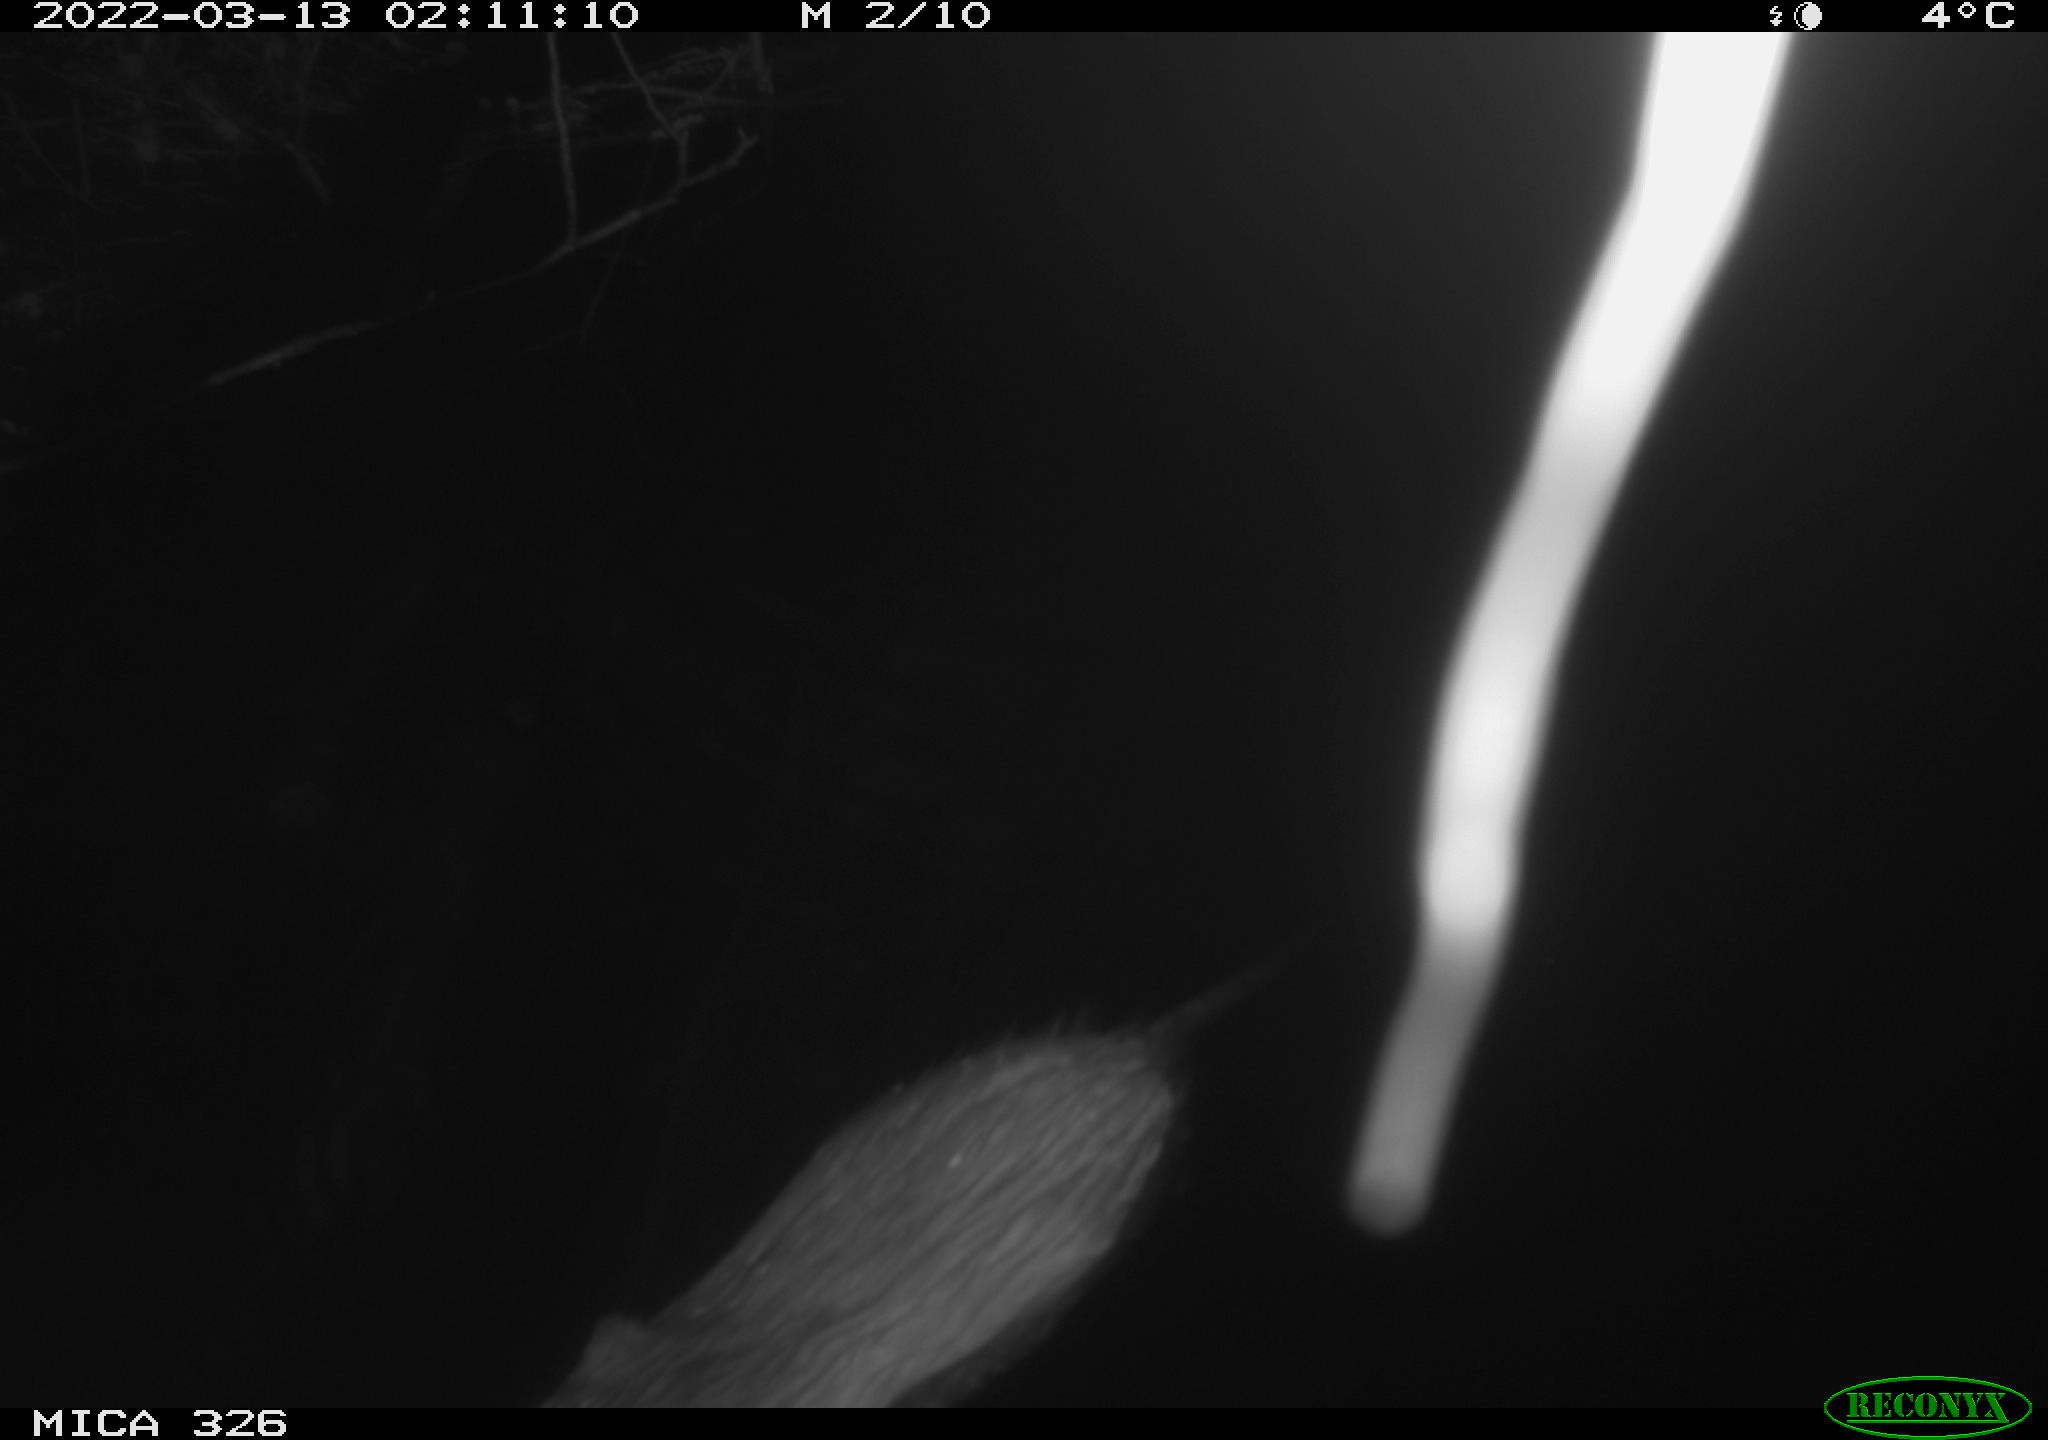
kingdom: Animalia
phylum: Chordata
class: Mammalia
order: Rodentia
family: Cricetidae
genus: Ondatra
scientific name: Ondatra zibethicus
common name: Muskrat
